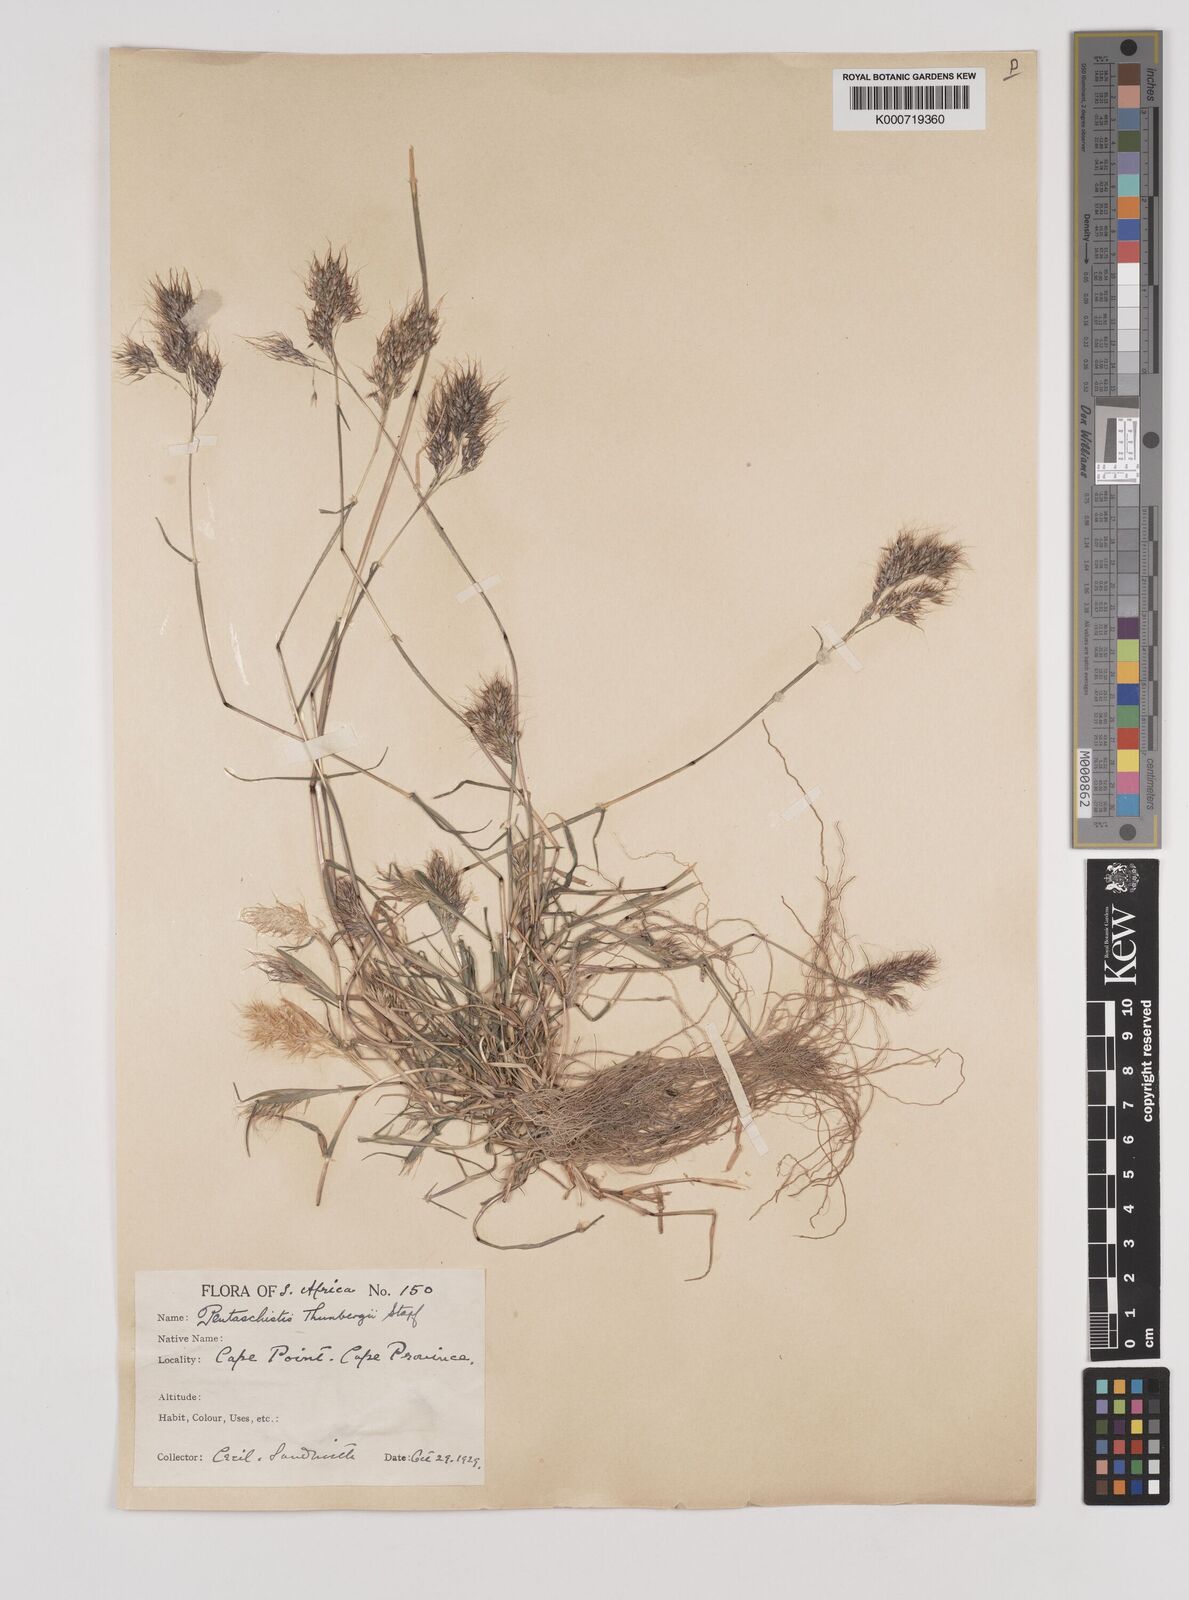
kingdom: Plantae
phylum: Tracheophyta
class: Liliopsida
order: Poales
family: Poaceae
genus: Pentameris
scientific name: Pentameris triseta
